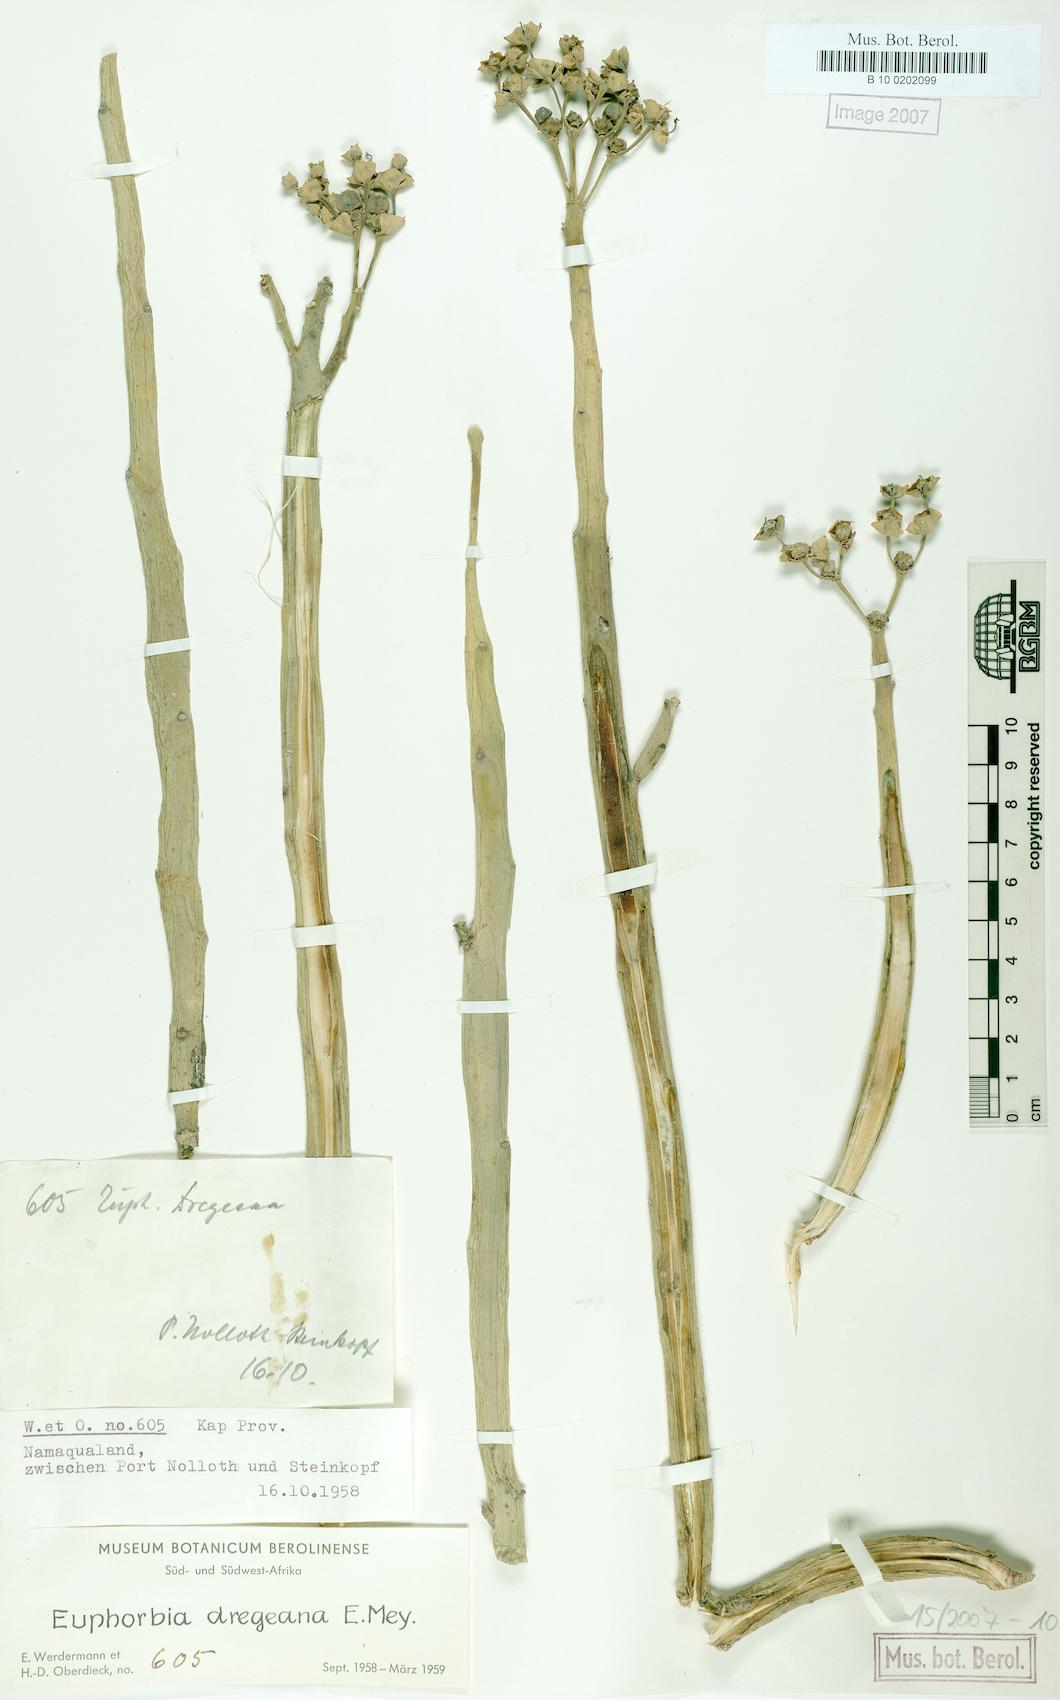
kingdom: Plantae
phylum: Tracheophyta
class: Magnoliopsida
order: Malpighiales
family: Euphorbiaceae
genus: Euphorbia
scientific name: Euphorbia dregeana
